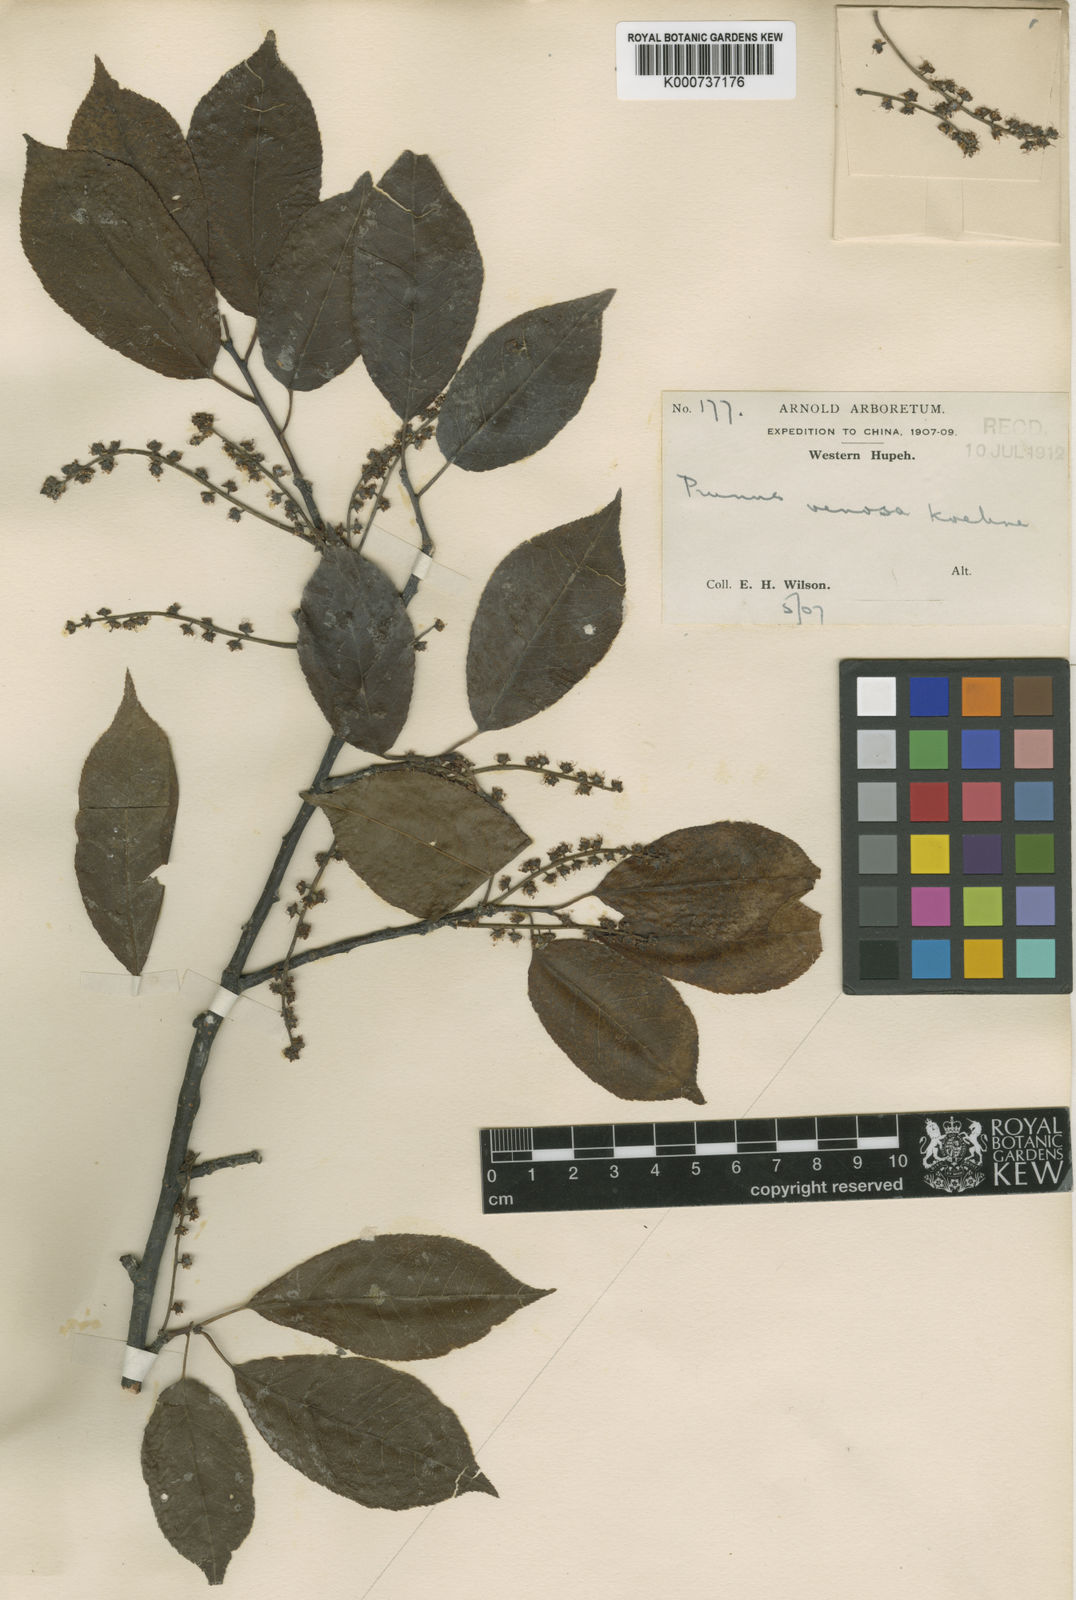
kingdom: Plantae
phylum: Tracheophyta
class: Magnoliopsida
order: Rosales
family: Rosaceae
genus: Prunus
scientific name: Prunus buergeriana
